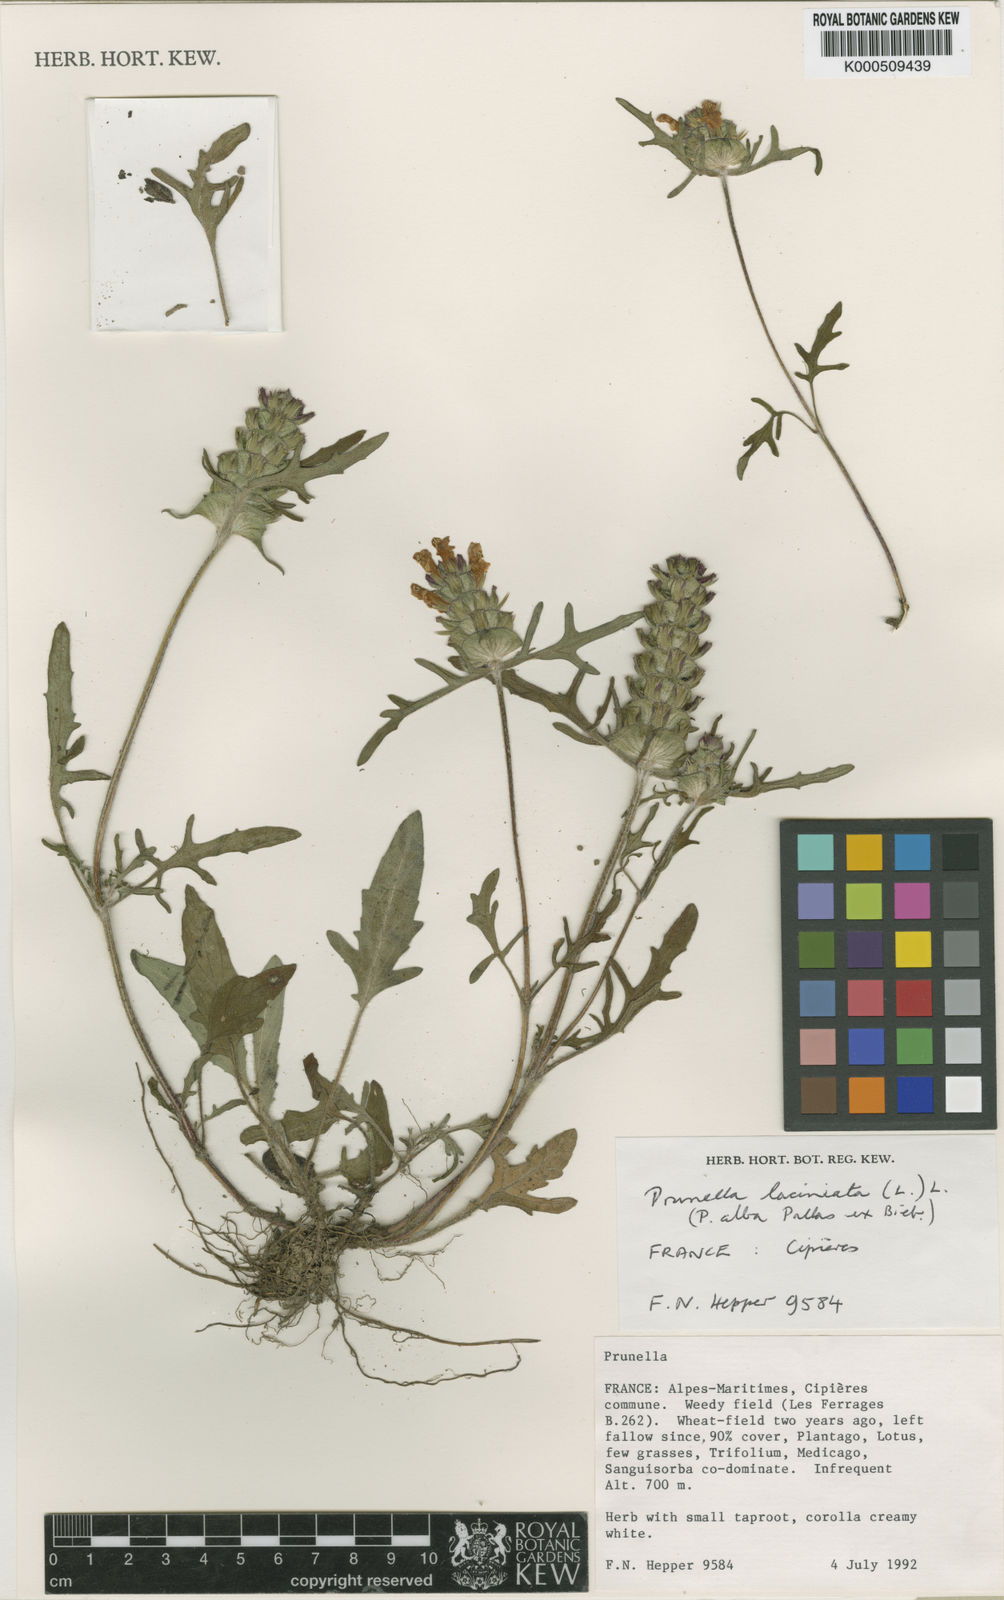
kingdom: Plantae
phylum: Tracheophyta
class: Magnoliopsida
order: Lamiales
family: Lamiaceae
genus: Prunella
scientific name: Prunella laciniata
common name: Cut-leaved selfheal
